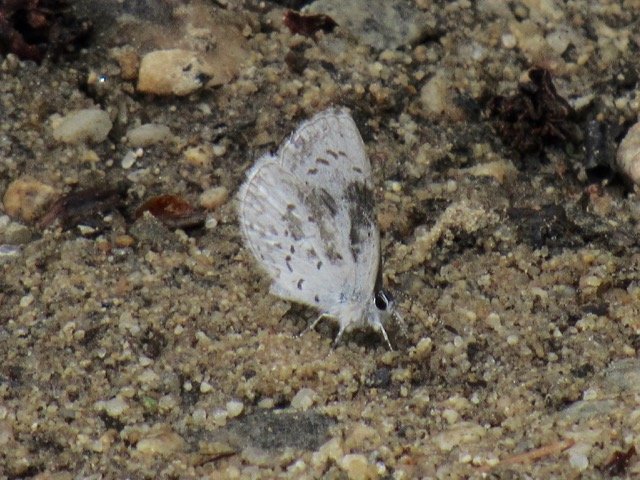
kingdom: Animalia
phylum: Arthropoda
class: Insecta
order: Lepidoptera
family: Lycaenidae
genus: Celastrina
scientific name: Celastrina lucia
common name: Northern Spring Azure
